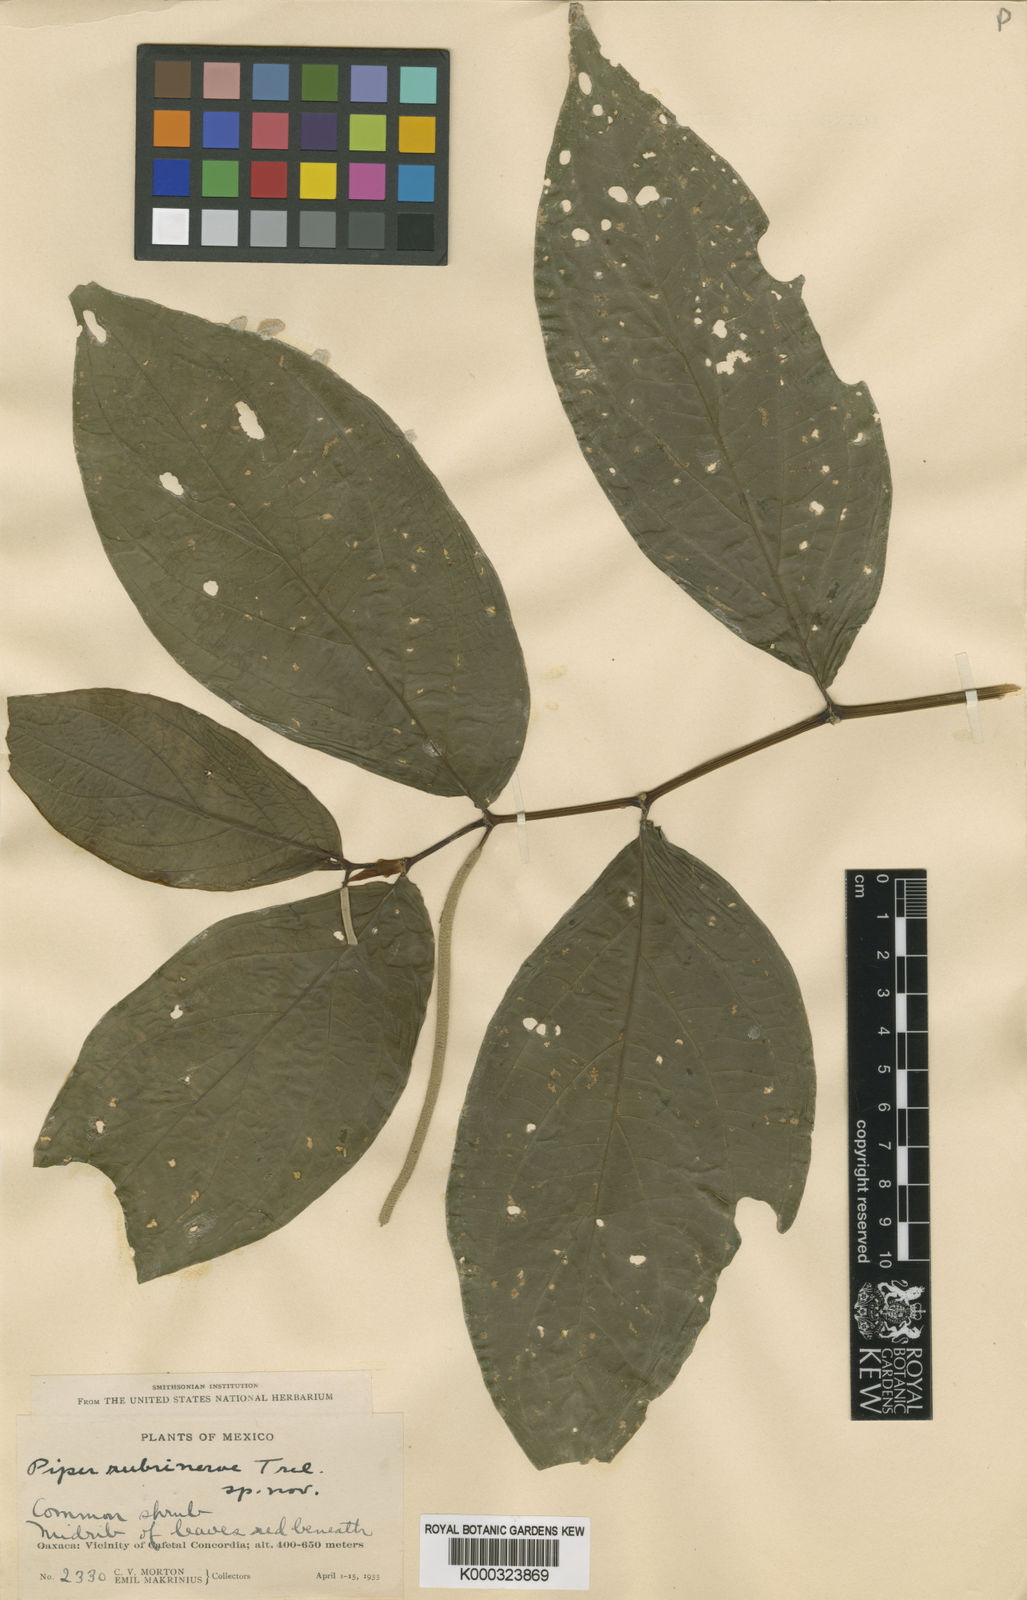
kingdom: Plantae
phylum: Tracheophyta
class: Magnoliopsida
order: Piperales
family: Piperaceae
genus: Piper
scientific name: Piper
